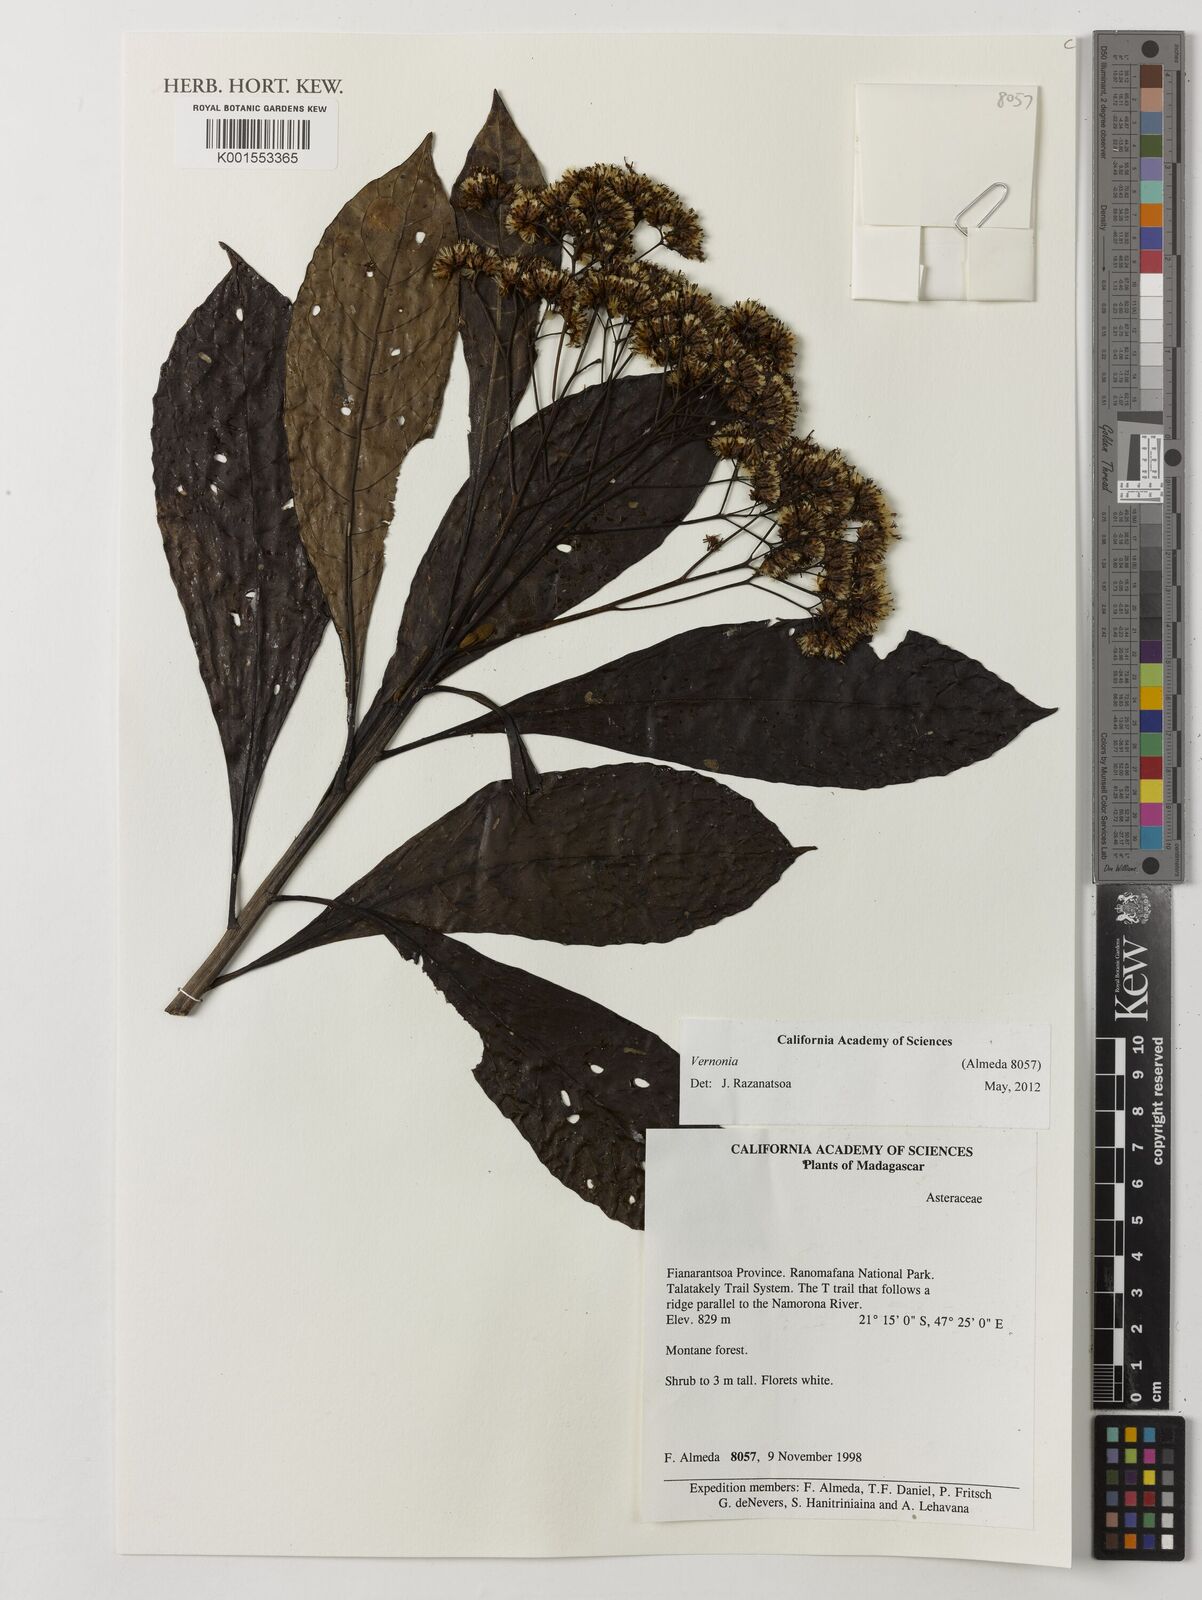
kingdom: Plantae
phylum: Tracheophyta
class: Magnoliopsida
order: Asterales
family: Asteraceae
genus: Vernonia
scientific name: Vernonia
